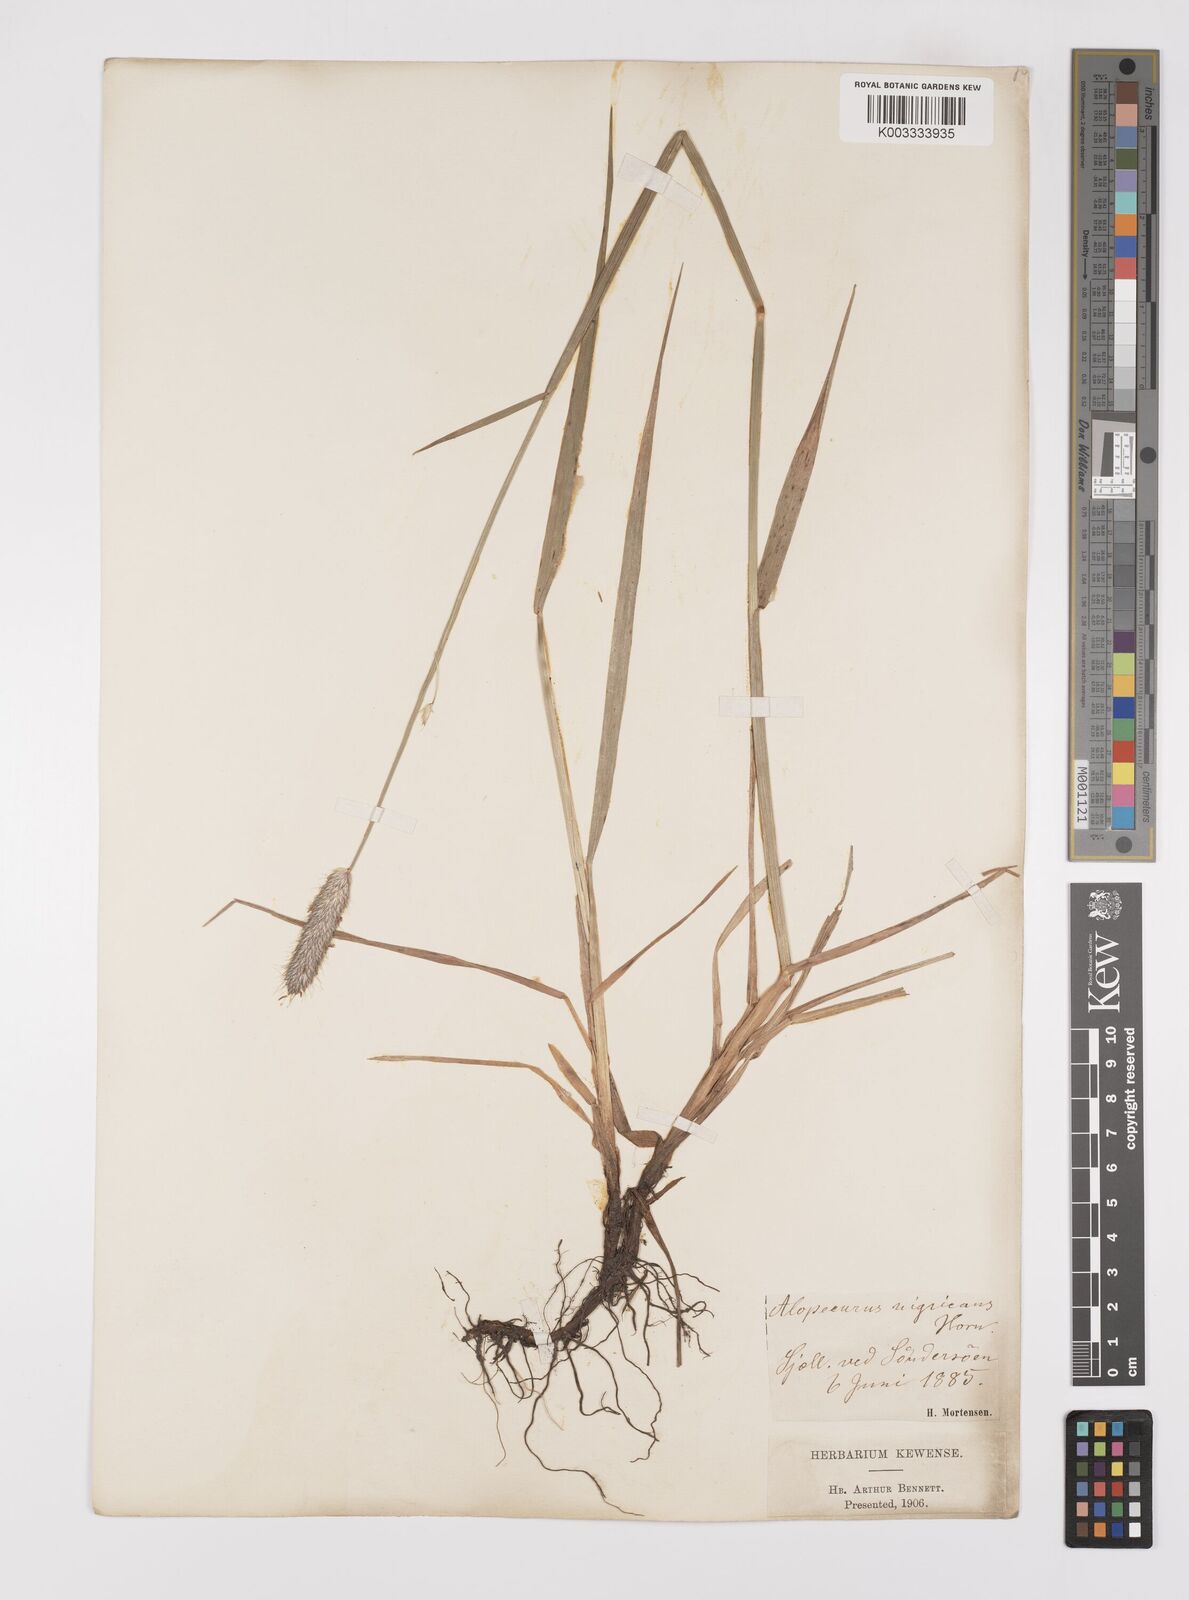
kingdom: Plantae
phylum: Tracheophyta
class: Liliopsida
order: Poales
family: Poaceae
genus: Alopecurus
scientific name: Alopecurus arundinaceus
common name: Creeping meadow foxtail
